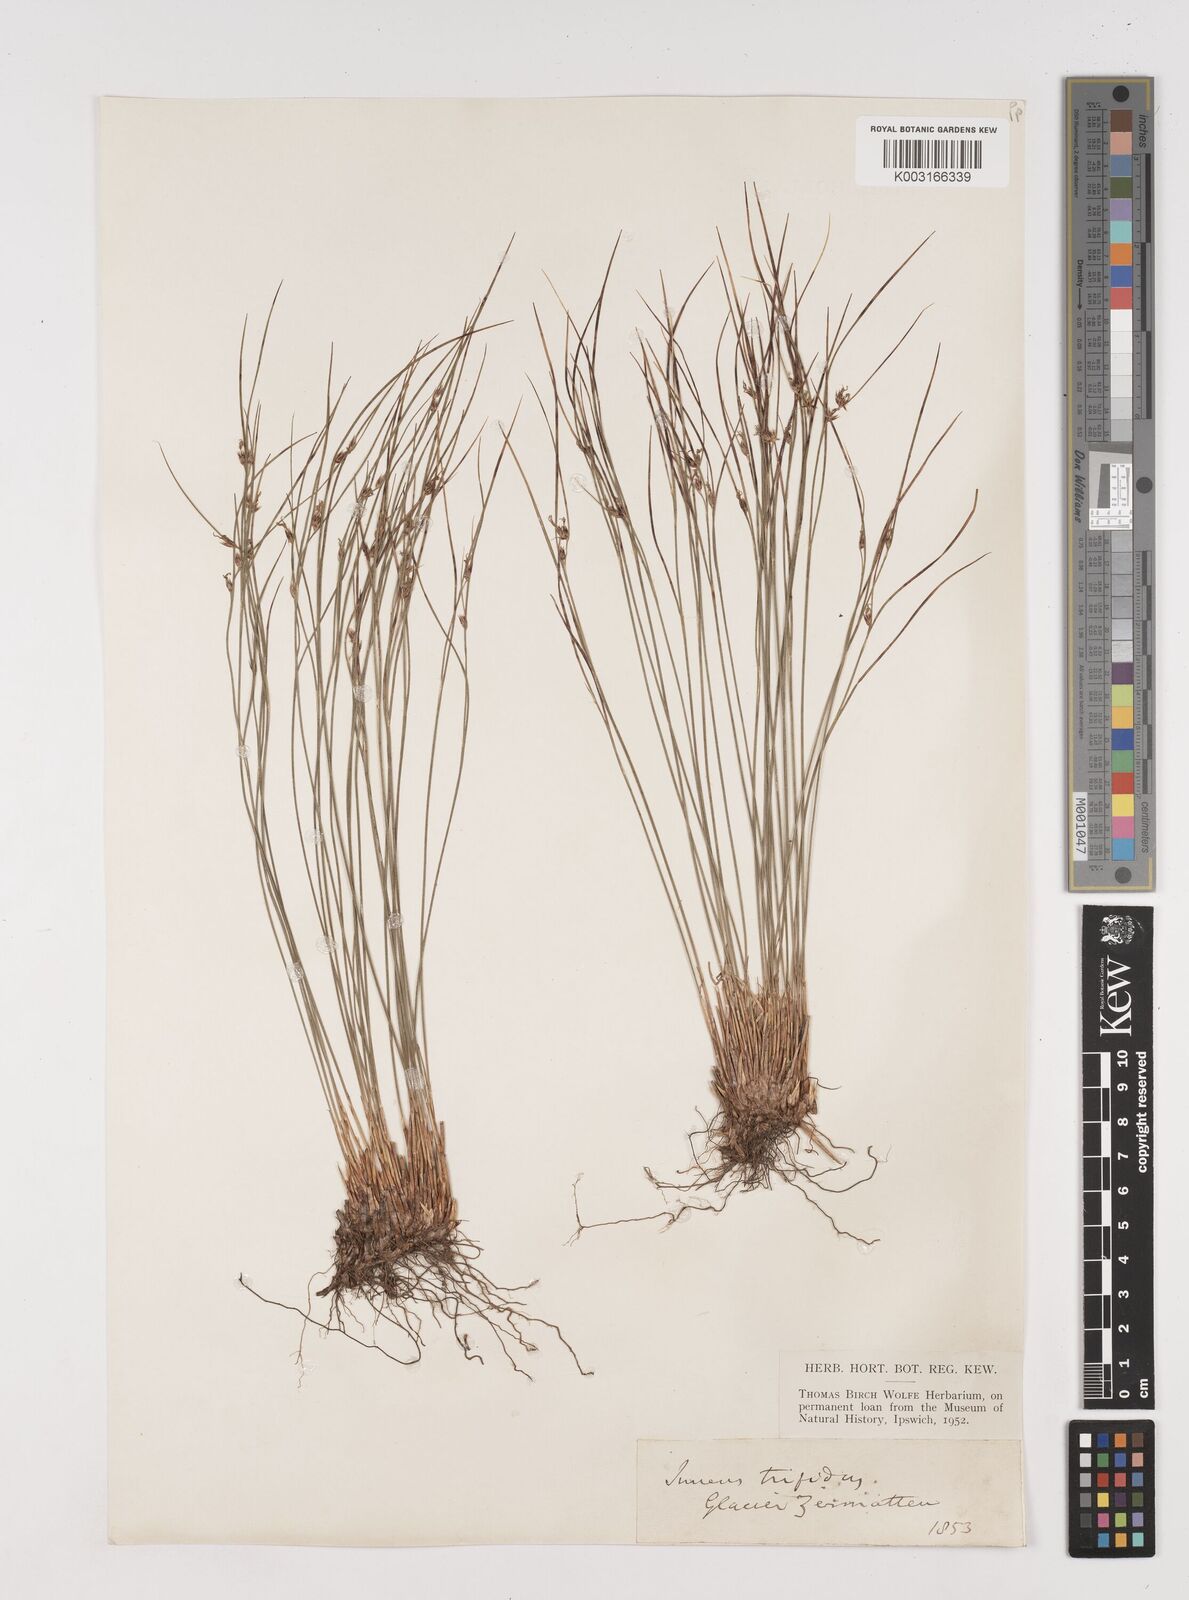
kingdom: Plantae
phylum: Tracheophyta
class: Liliopsida
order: Poales
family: Juncaceae
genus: Oreojuncus
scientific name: Oreojuncus trifidus
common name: Highland rush
